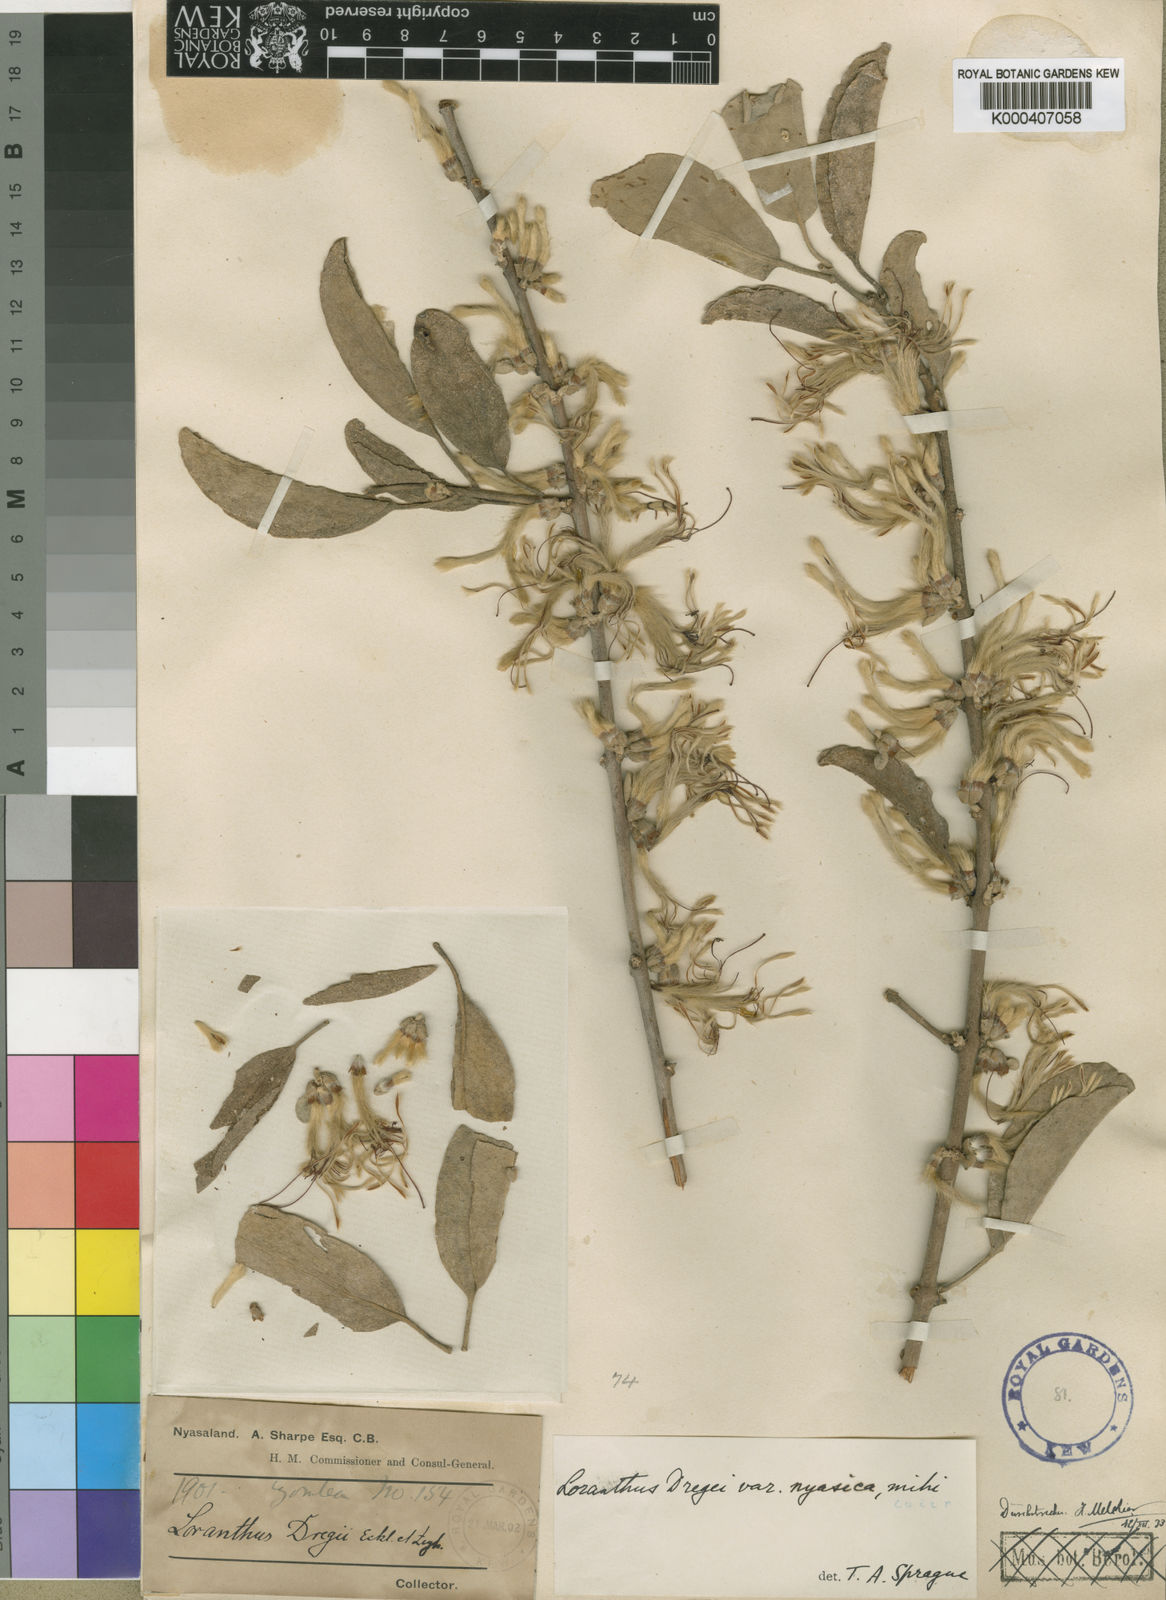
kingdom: Plantae
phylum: Tracheophyta
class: Magnoliopsida
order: Santalales
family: Loranthaceae
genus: Erianthemum
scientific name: Erianthemum dregei
